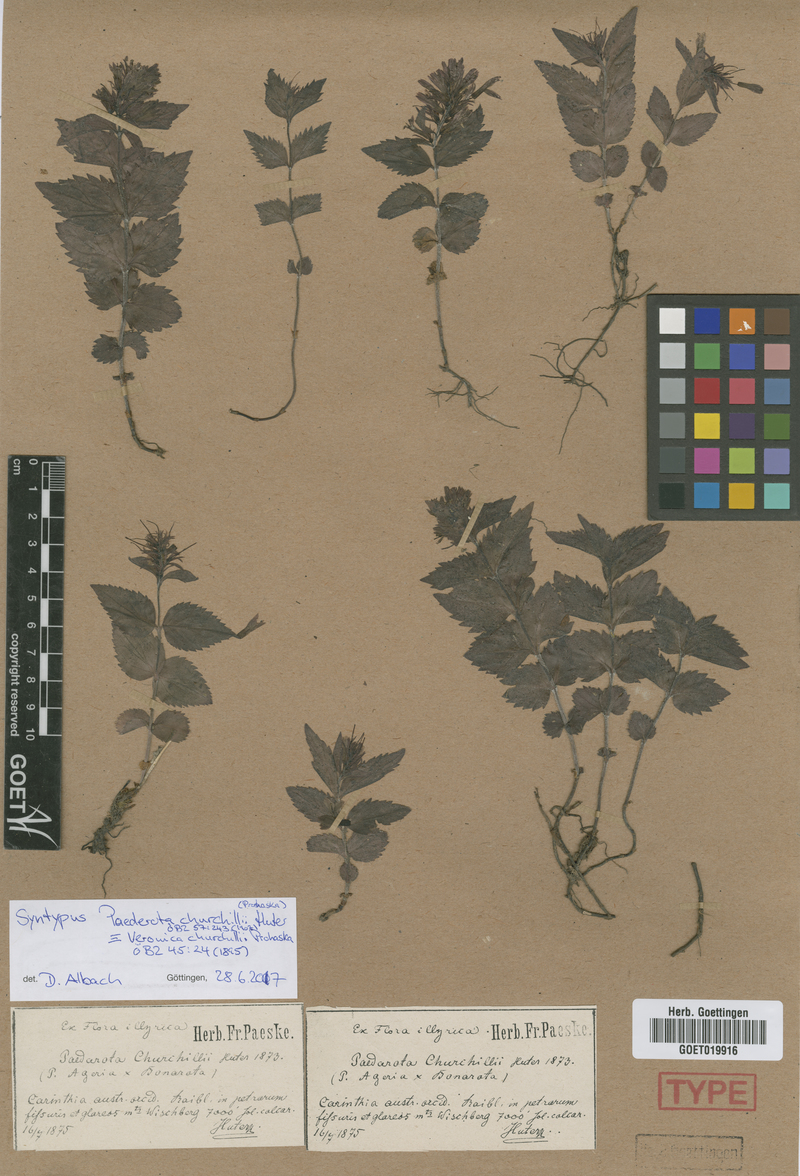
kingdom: Plantae
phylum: Tracheophyta
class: Magnoliopsida
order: Lamiales
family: Plantaginaceae
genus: Paederota
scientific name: Paederota churchillii
